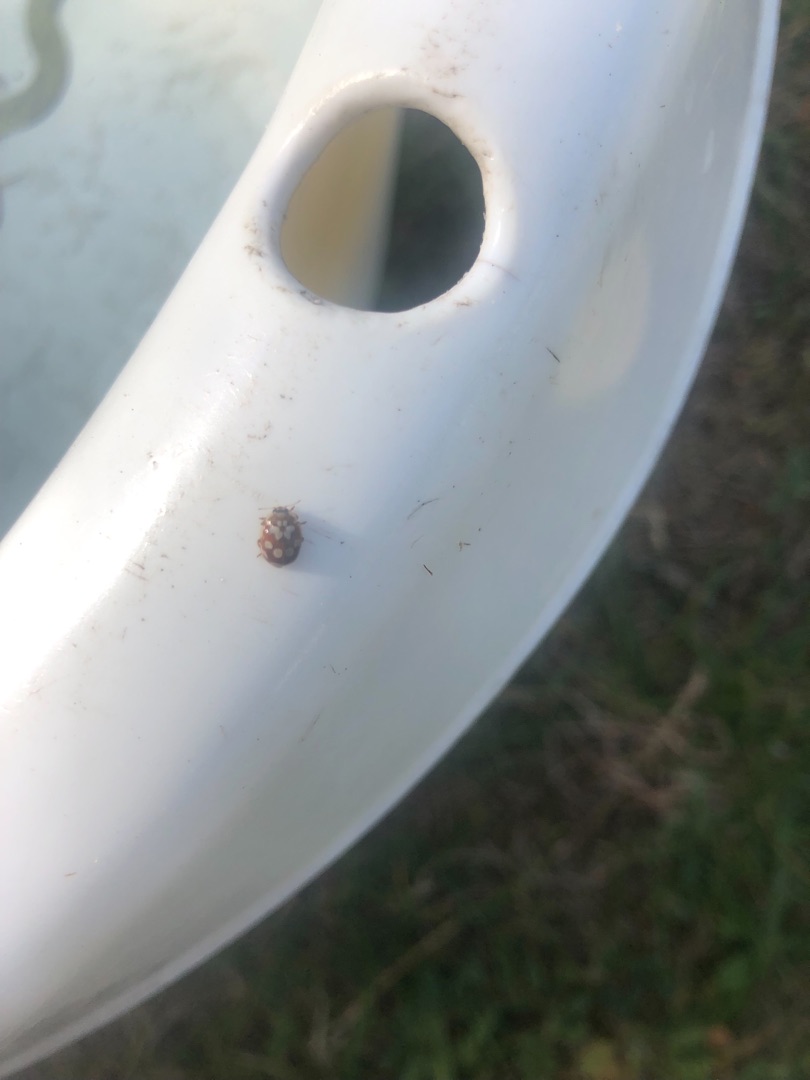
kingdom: Animalia
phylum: Arthropoda
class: Insecta
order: Coleoptera
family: Coccinellidae
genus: Myrrha
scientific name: Myrrha octodecimguttata
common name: Attenplettet mariehøne
